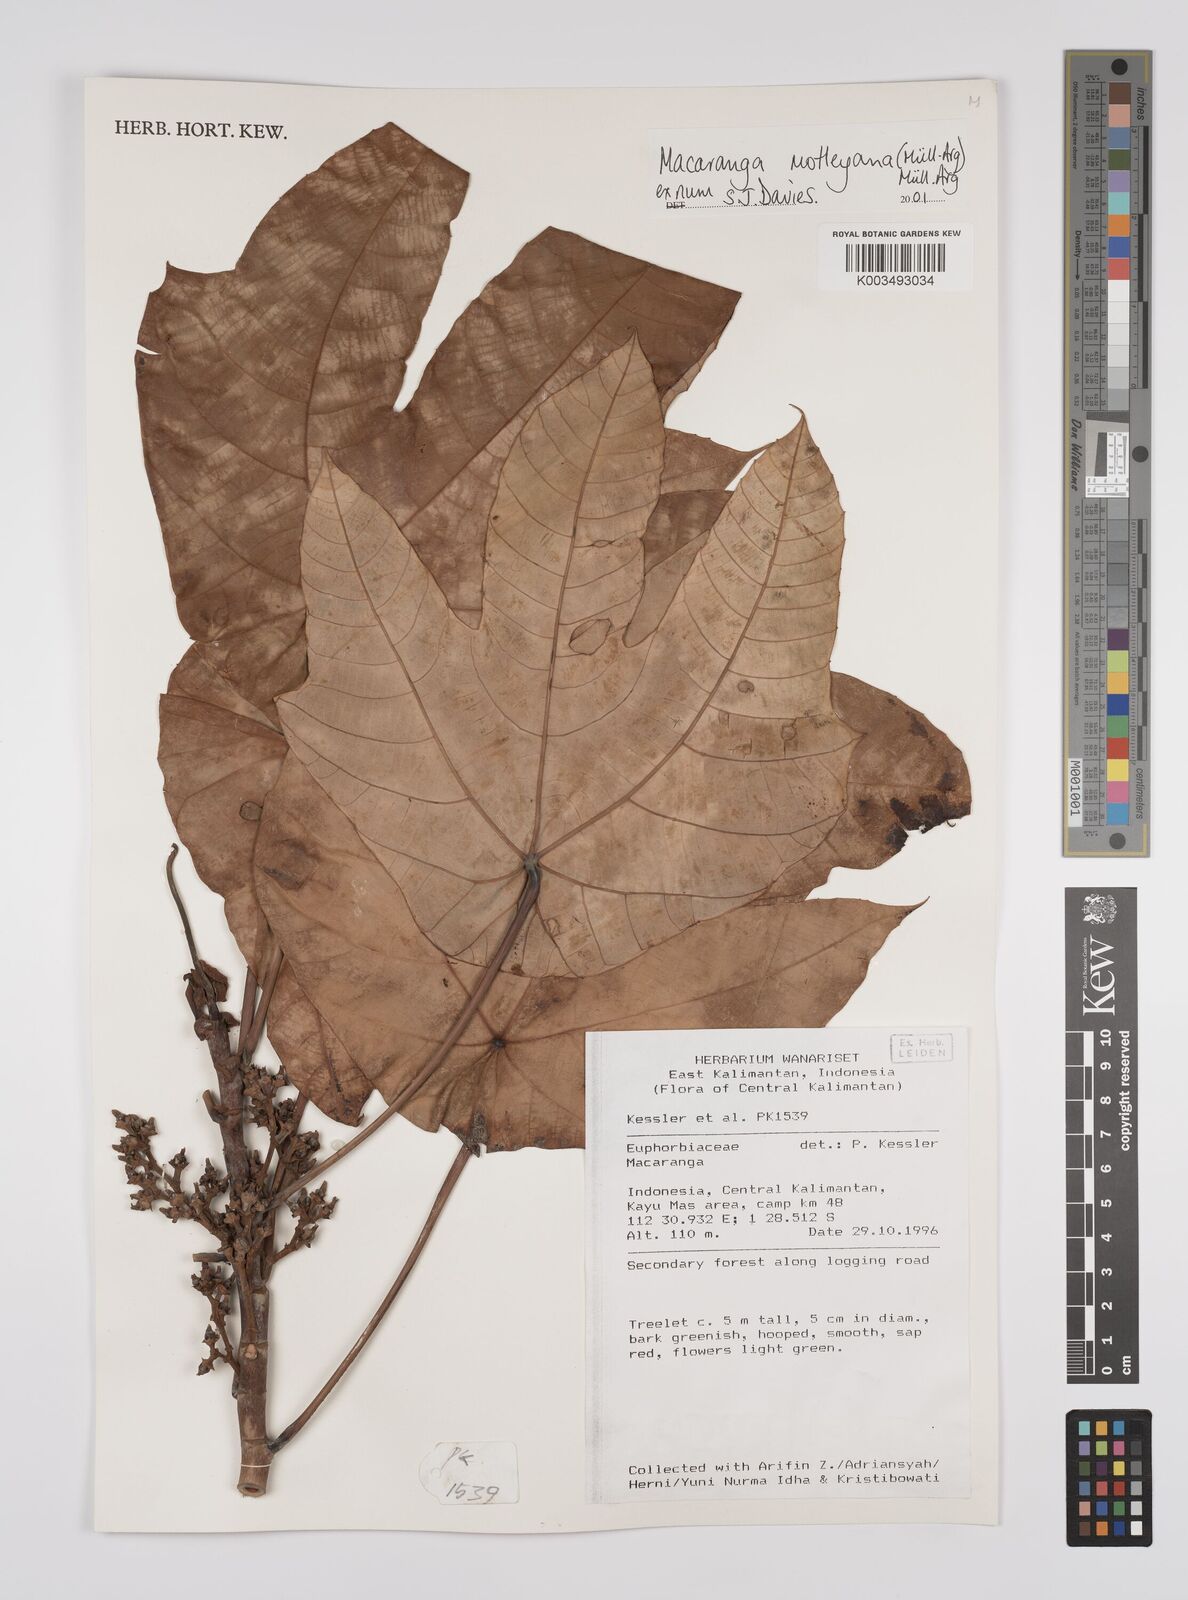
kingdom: Plantae
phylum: Tracheophyta
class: Magnoliopsida
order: Malpighiales
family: Euphorbiaceae
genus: Macaranga
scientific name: Macaranga motleyana
